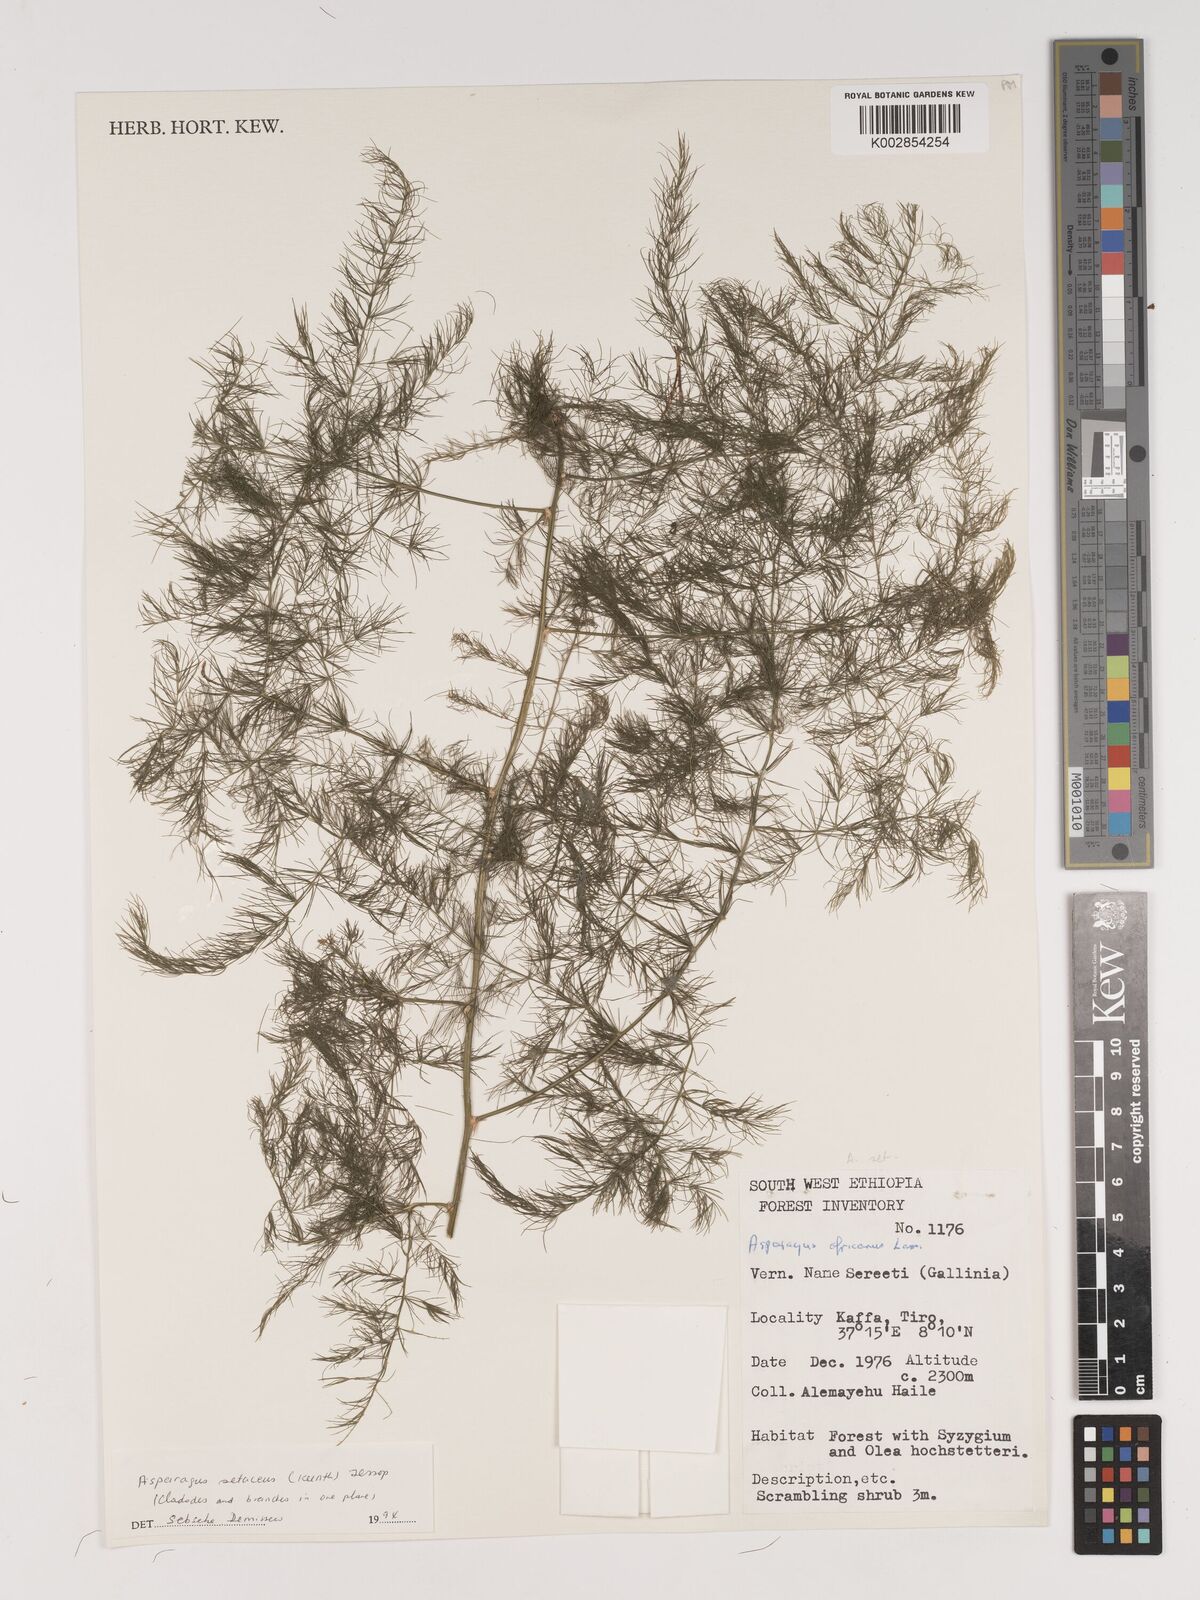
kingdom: Plantae
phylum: Tracheophyta
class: Liliopsida
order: Asparagales
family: Asparagaceae
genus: Asparagus
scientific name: Asparagus setaceus
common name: Common asparagus fern
